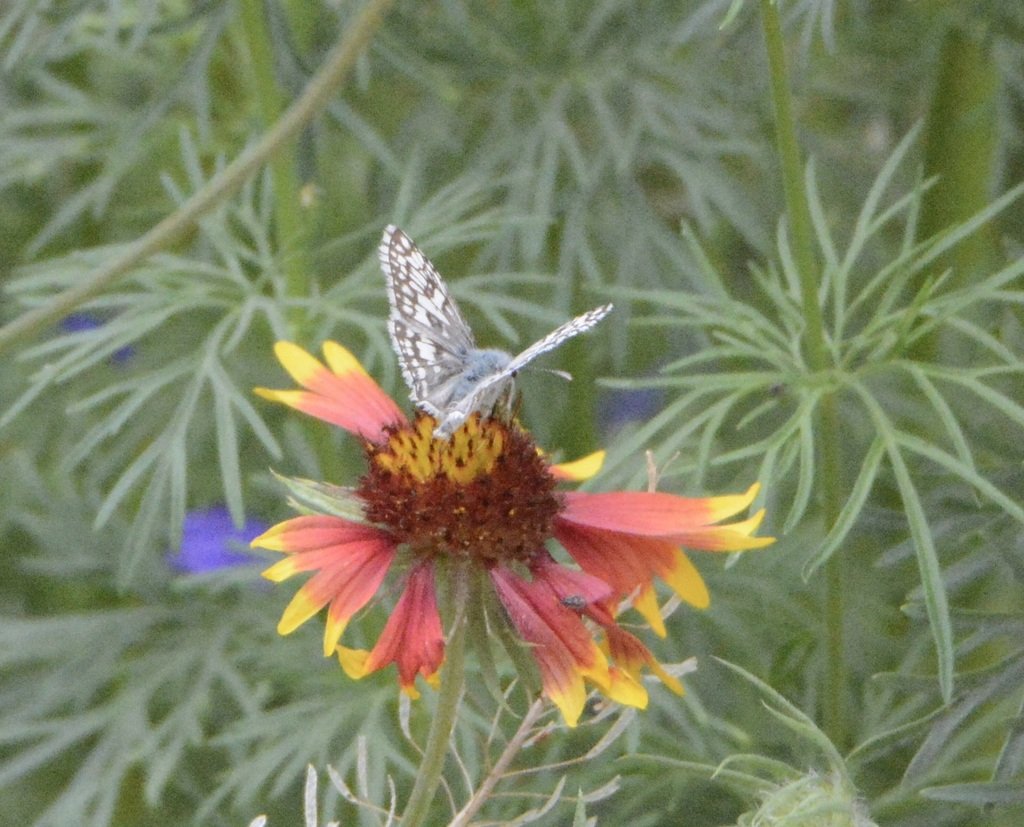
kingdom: Animalia
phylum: Arthropoda
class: Insecta
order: Lepidoptera
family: Hesperiidae
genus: Pyrgus
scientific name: Pyrgus communis
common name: Common Checkered-Skipper
